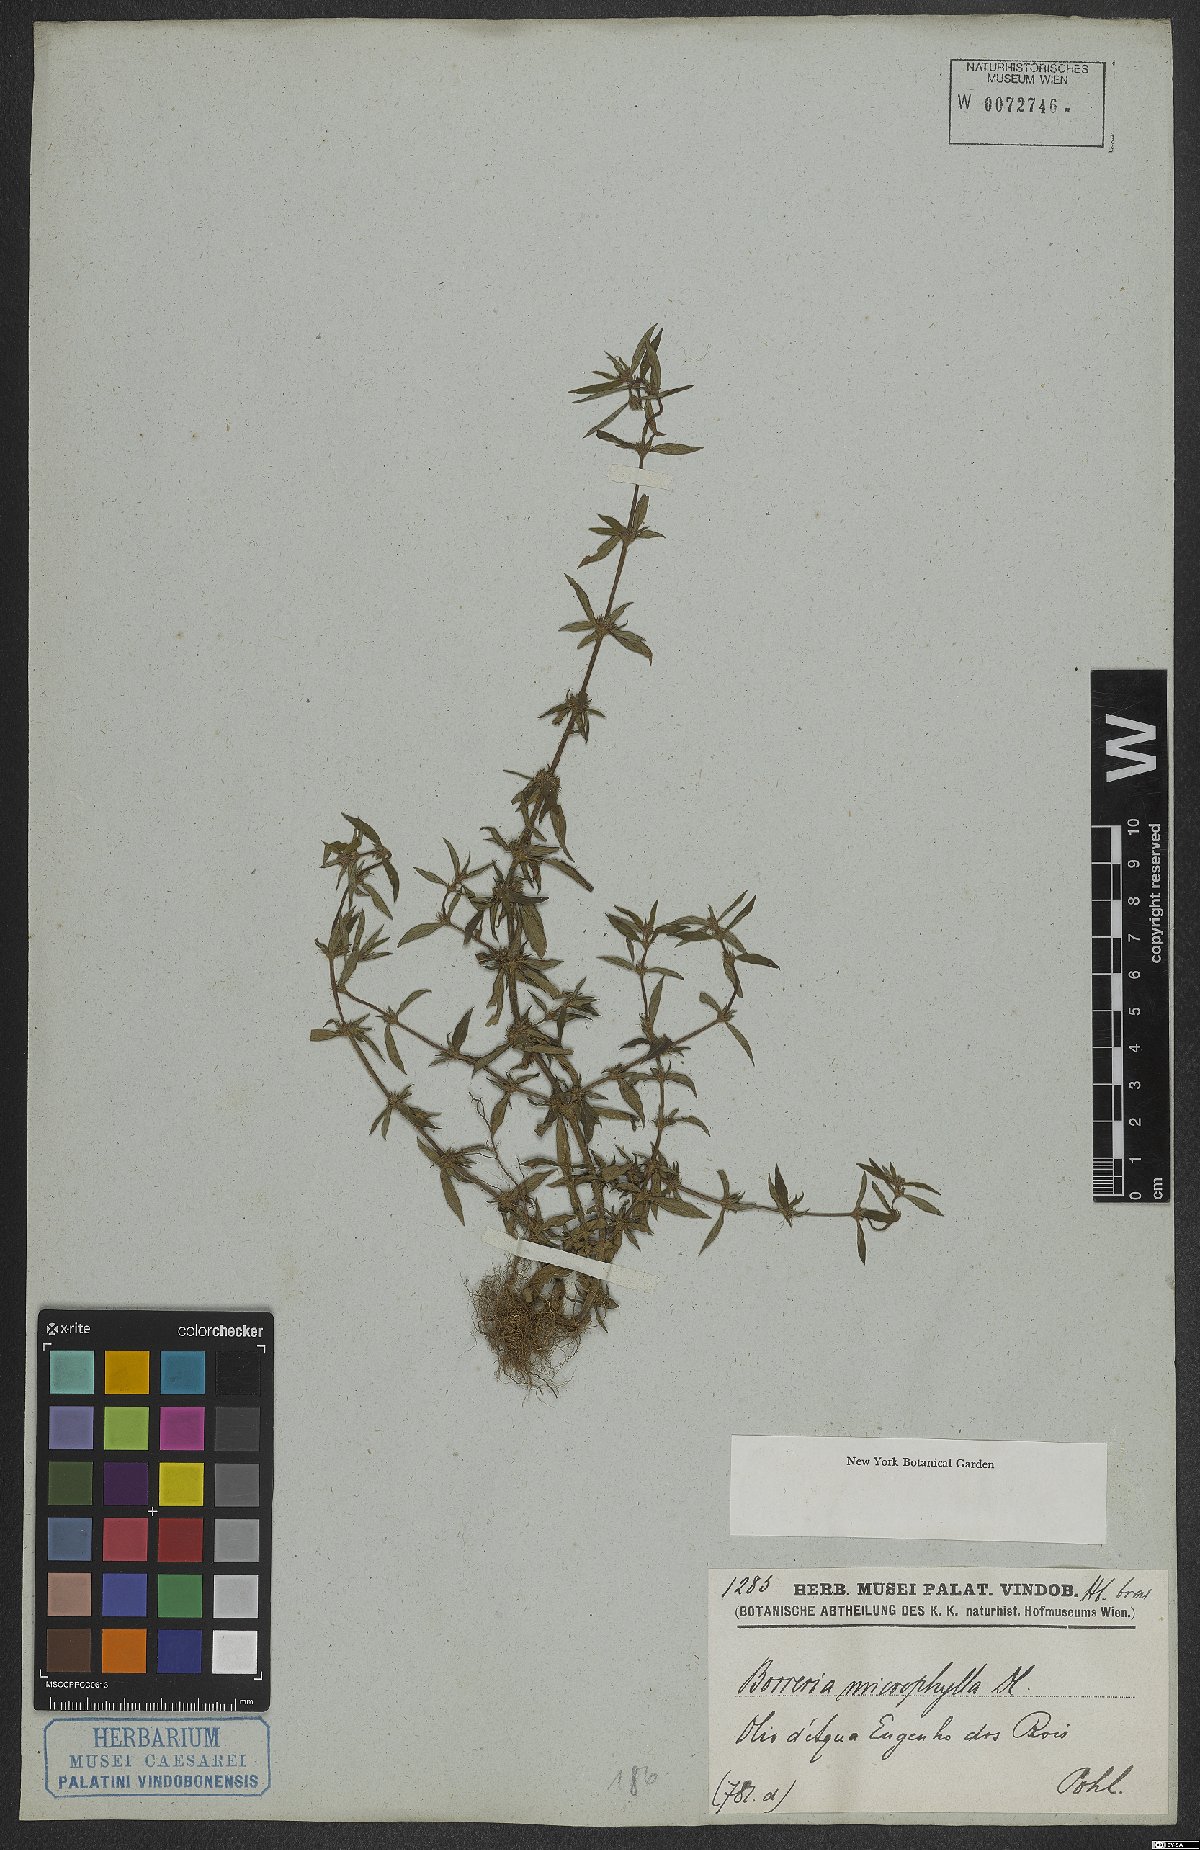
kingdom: Plantae
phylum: Tracheophyta
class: Magnoliopsida
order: Gentianales
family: Rubiaceae
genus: Spermacoce
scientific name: Spermacoce ocymoides
